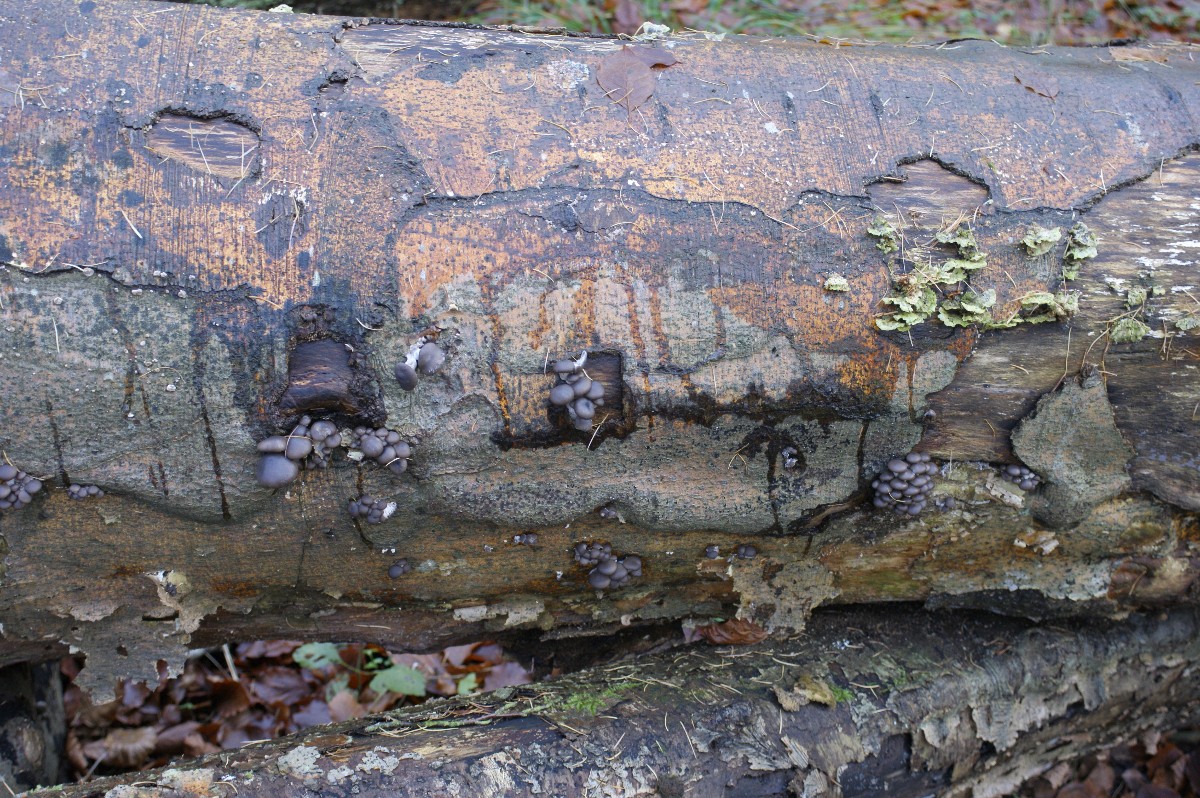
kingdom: Fungi
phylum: Basidiomycota
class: Agaricomycetes
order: Agaricales
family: Pleurotaceae
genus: Pleurotus
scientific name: Pleurotus ostreatus
